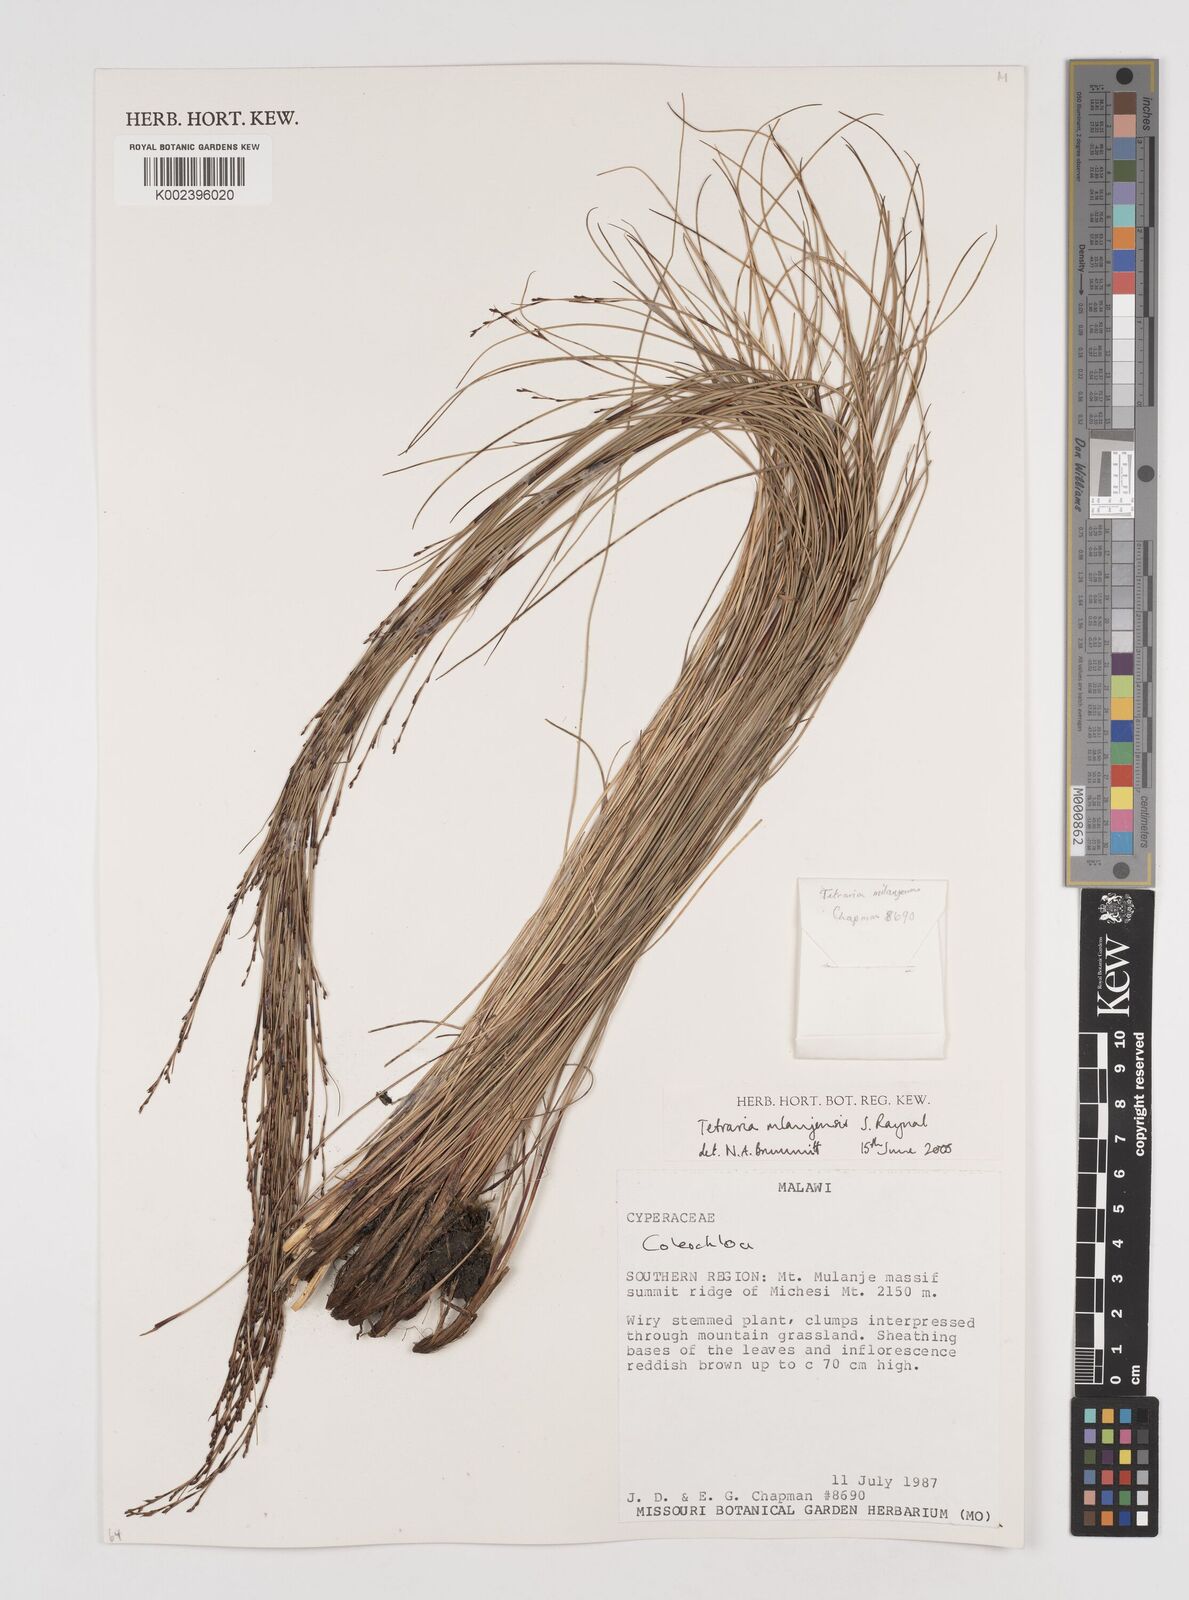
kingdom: Plantae
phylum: Tracheophyta
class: Liliopsida
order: Poales
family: Cyperaceae
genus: Tetraria
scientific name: Tetraria mlanjensis
